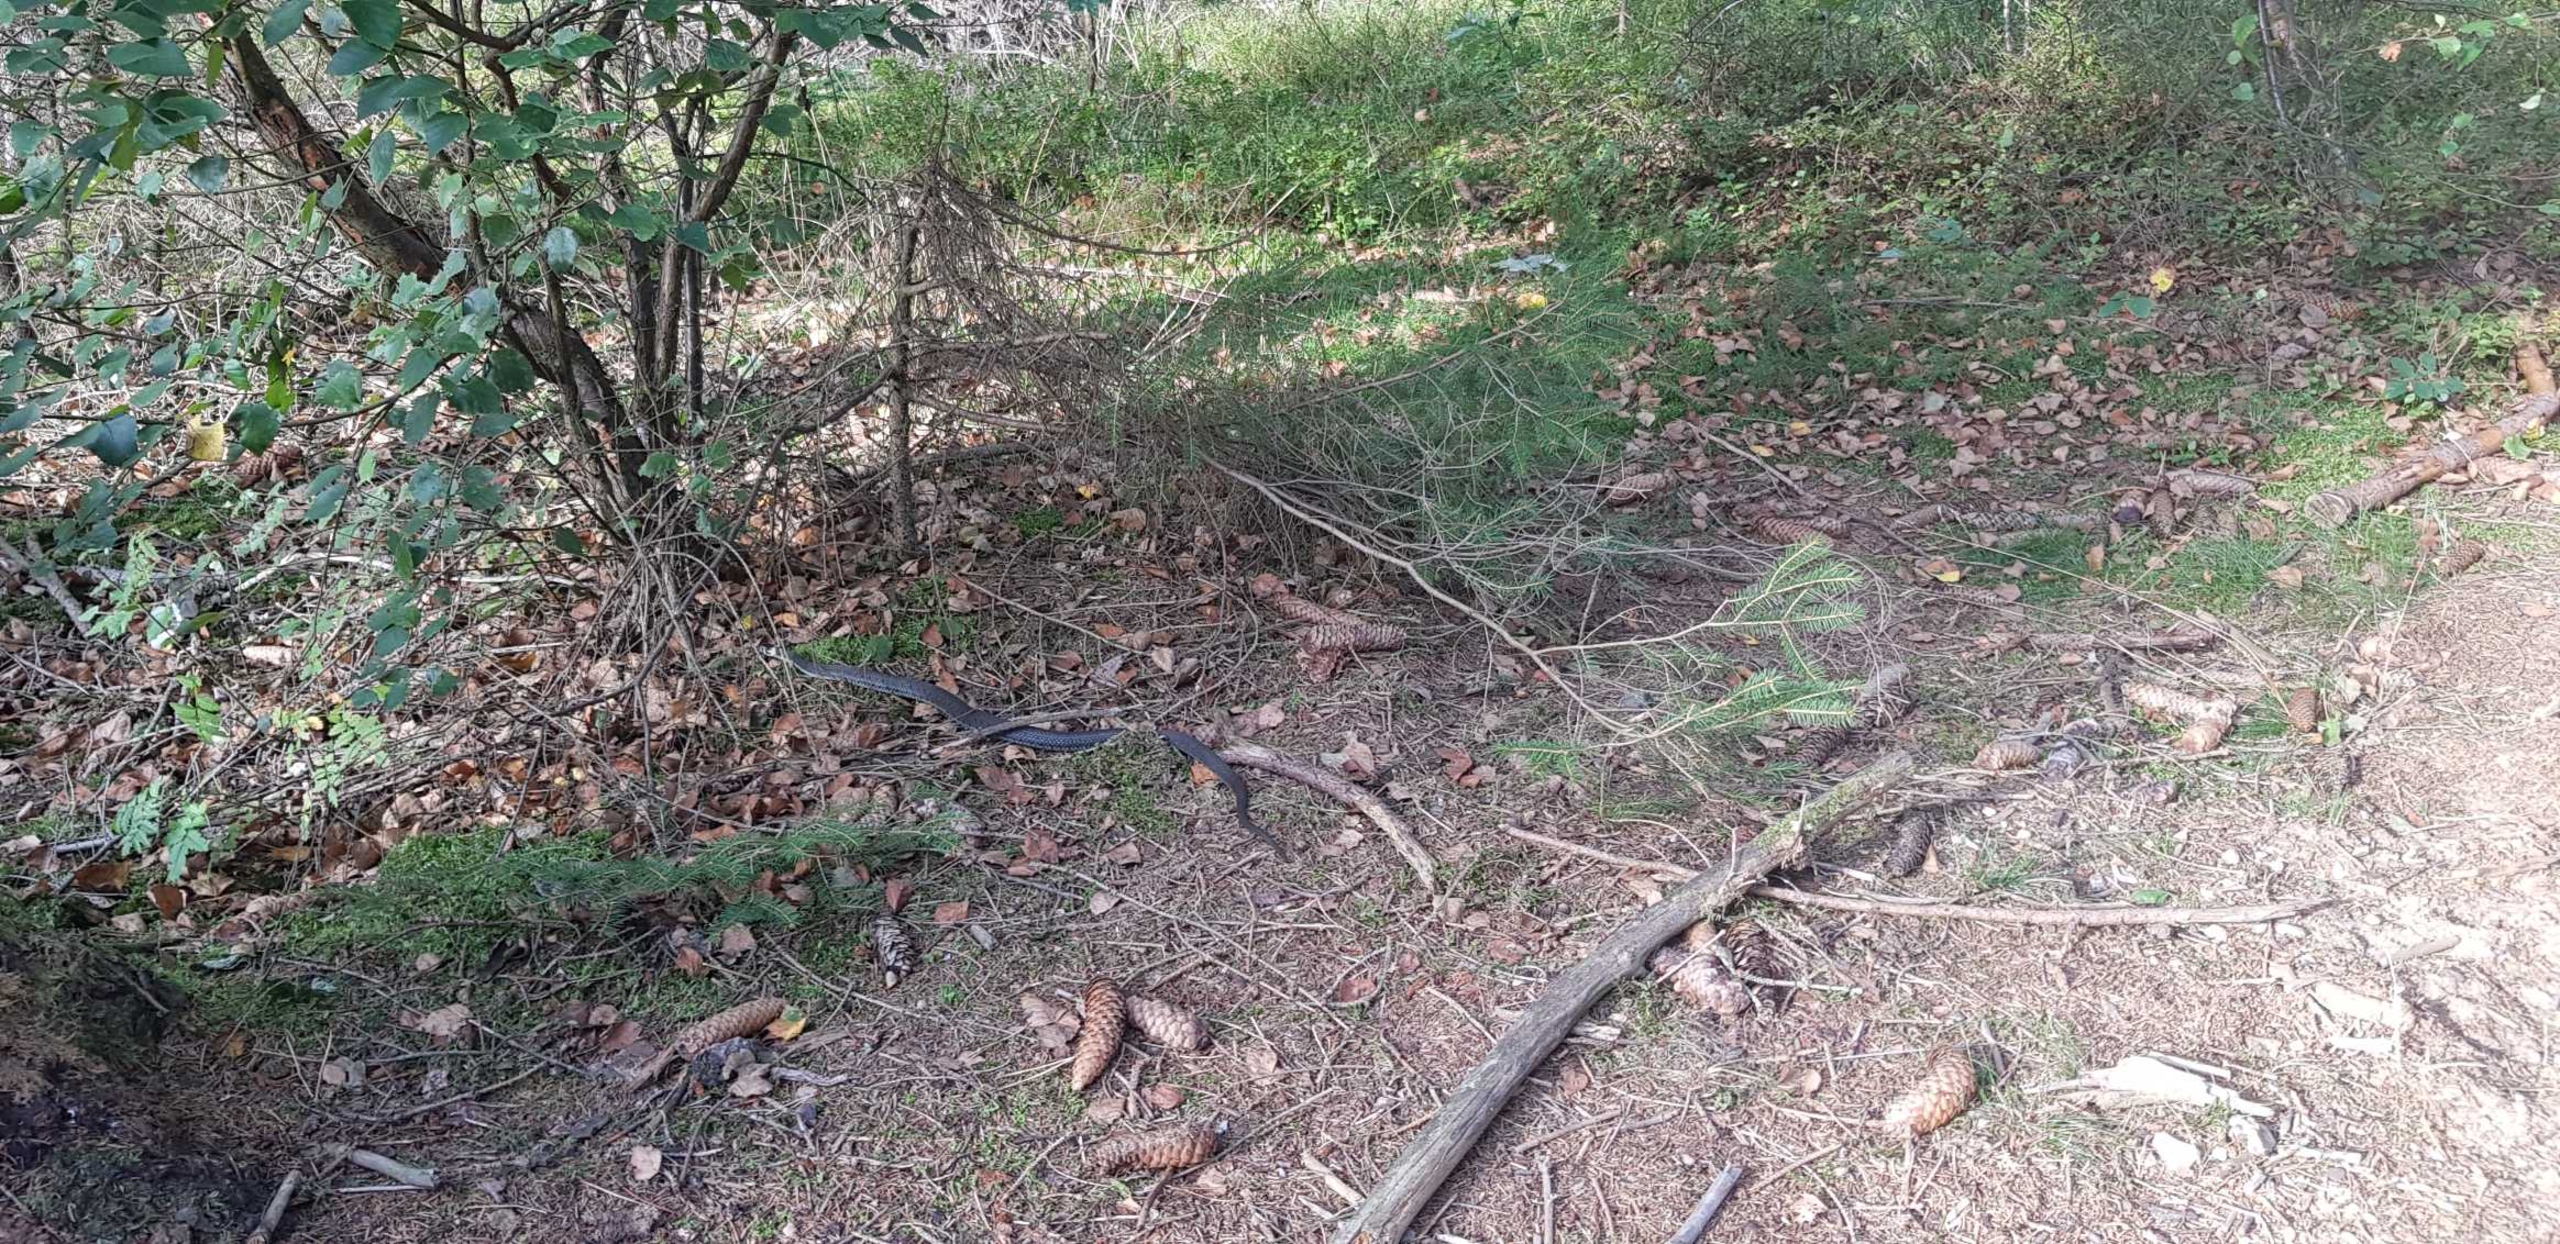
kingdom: Animalia
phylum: Chordata
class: Squamata
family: Colubridae
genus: Natrix
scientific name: Natrix natrix
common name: Snog
